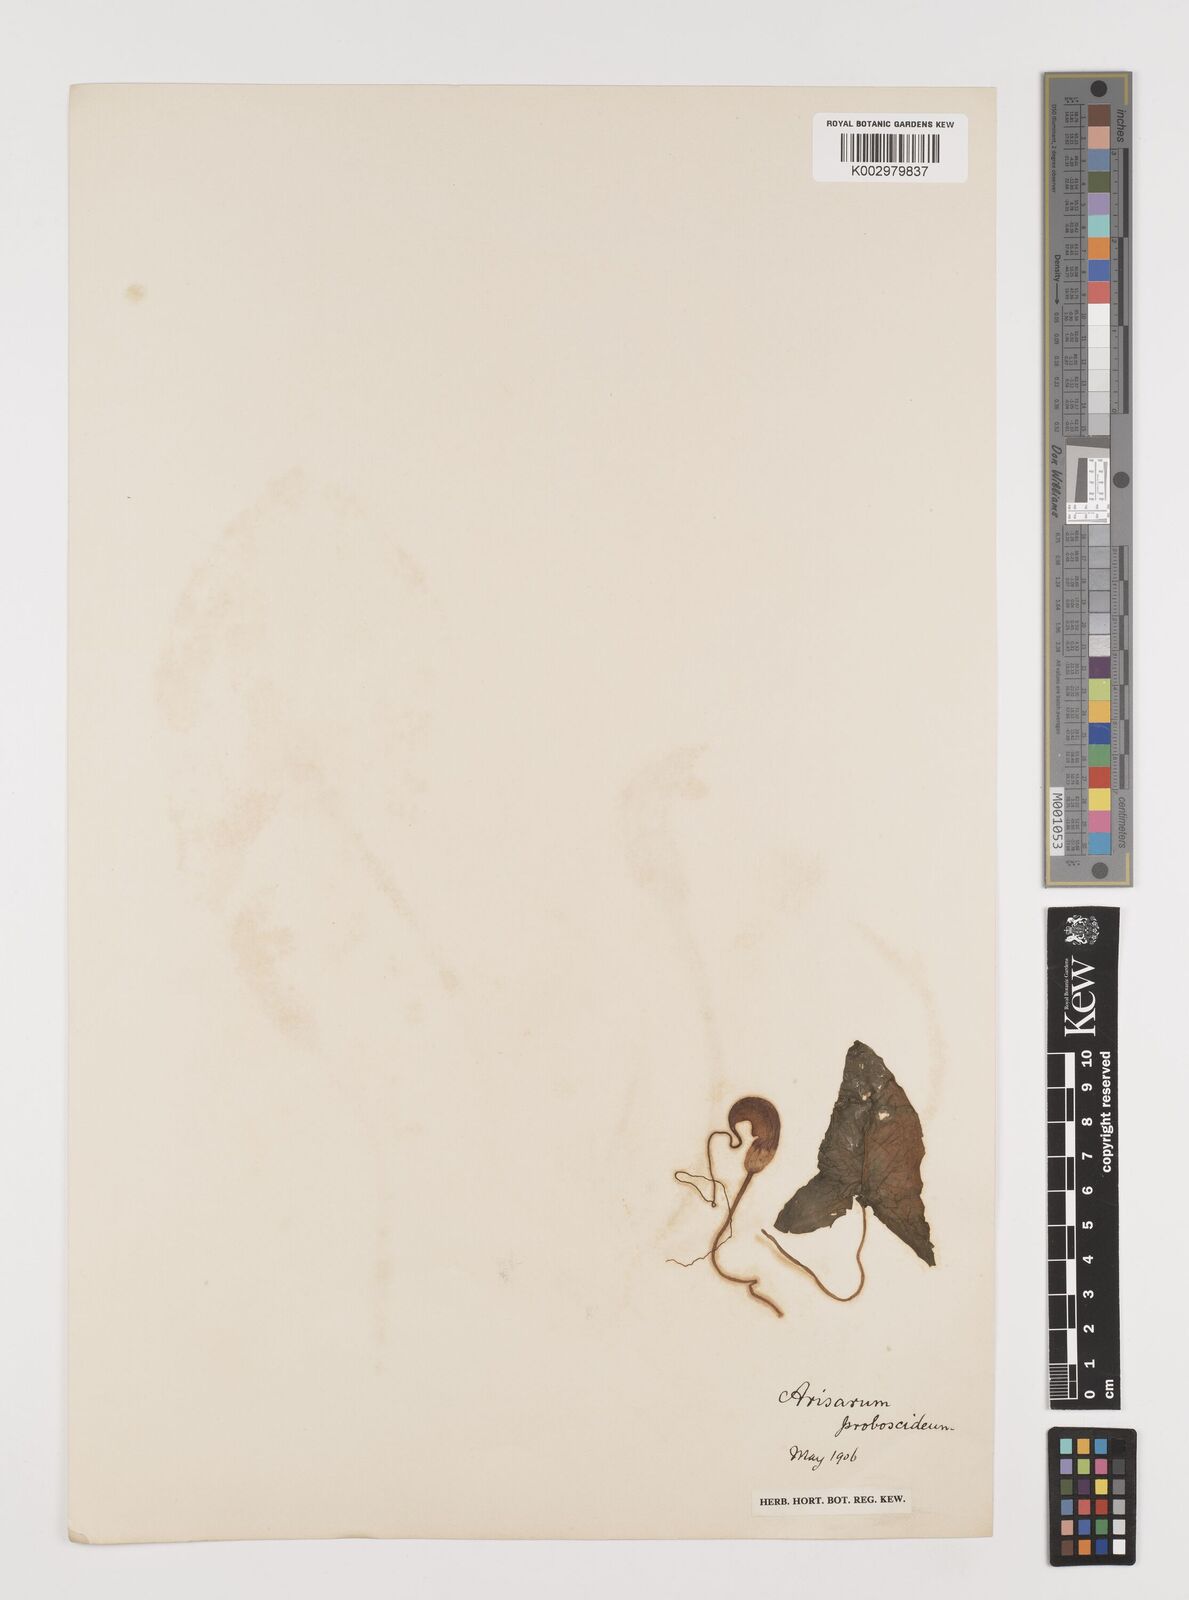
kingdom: Plantae
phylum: Tracheophyta
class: Liliopsida
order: Alismatales
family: Araceae
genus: Arisarum
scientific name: Arisarum proboscideum
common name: Mousetailplant
